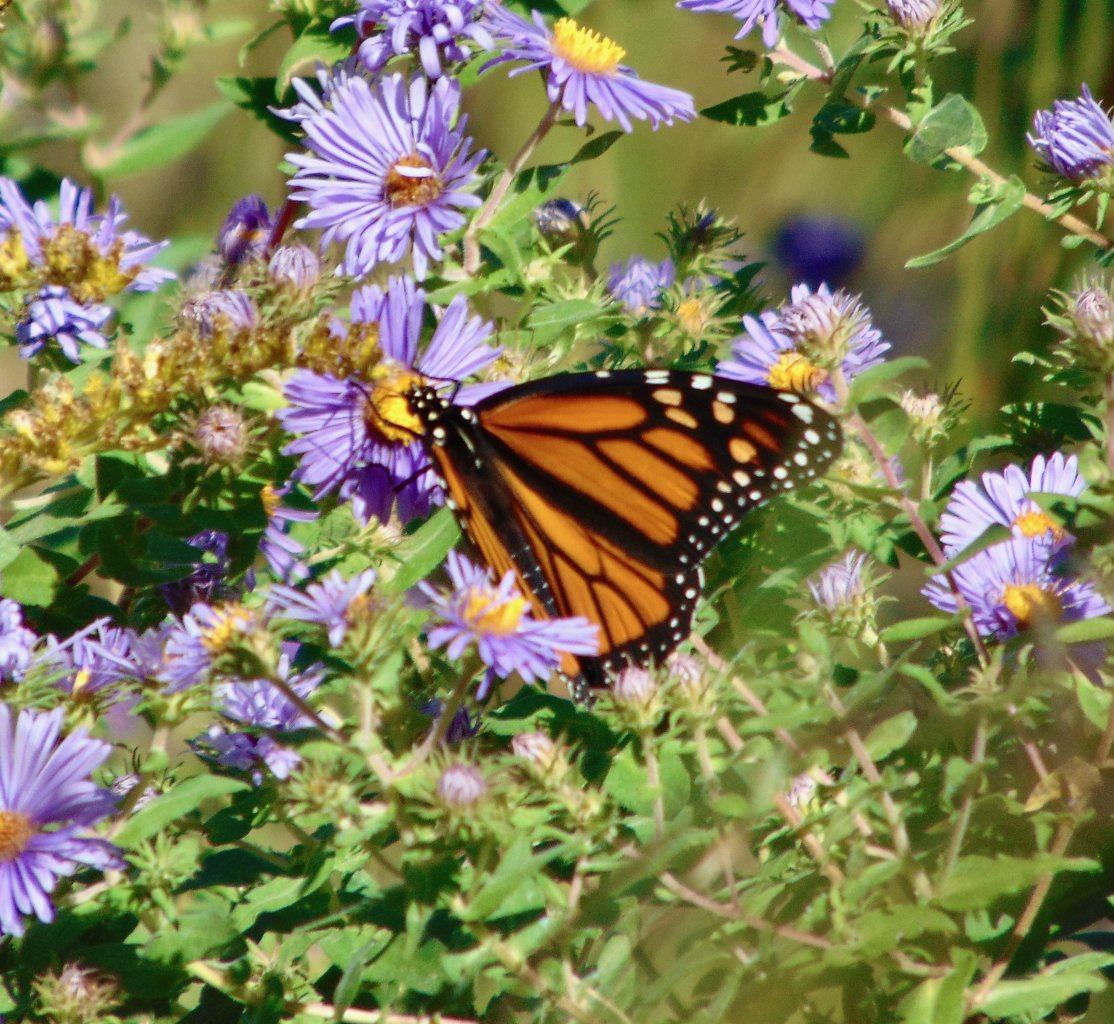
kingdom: Animalia
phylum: Arthropoda
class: Insecta
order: Lepidoptera
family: Nymphalidae
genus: Danaus
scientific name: Danaus plexippus
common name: Monarch
